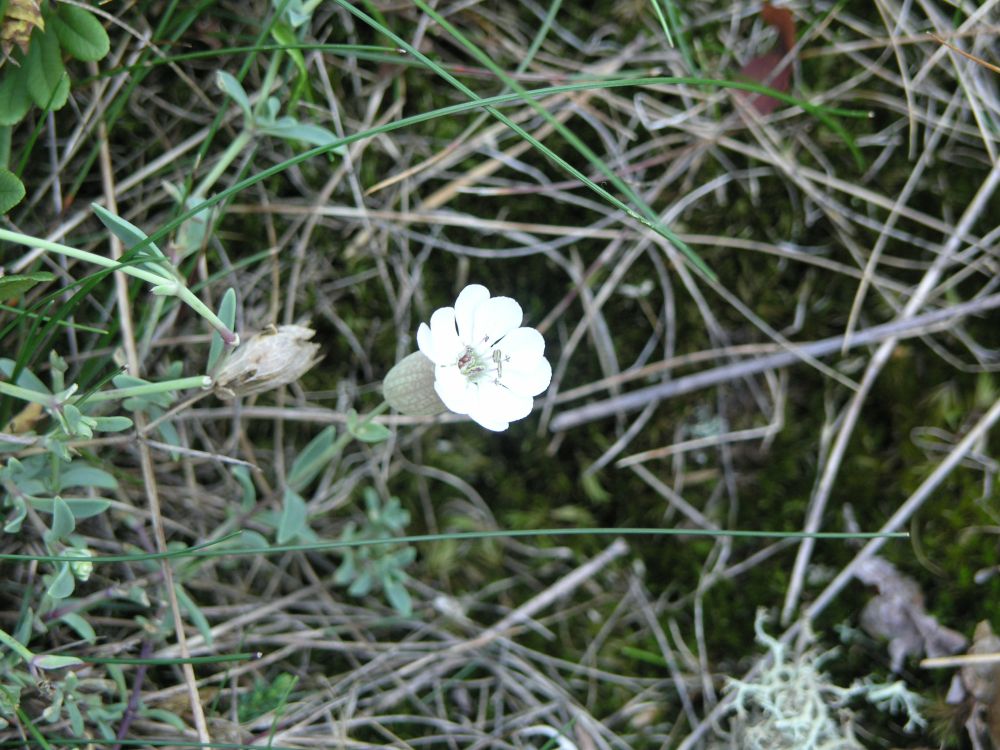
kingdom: Plantae
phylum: Tracheophyta
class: Magnoliopsida
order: Caryophyllales
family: Caryophyllaceae
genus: Silene
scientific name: Silene uniflora
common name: Sea campion
